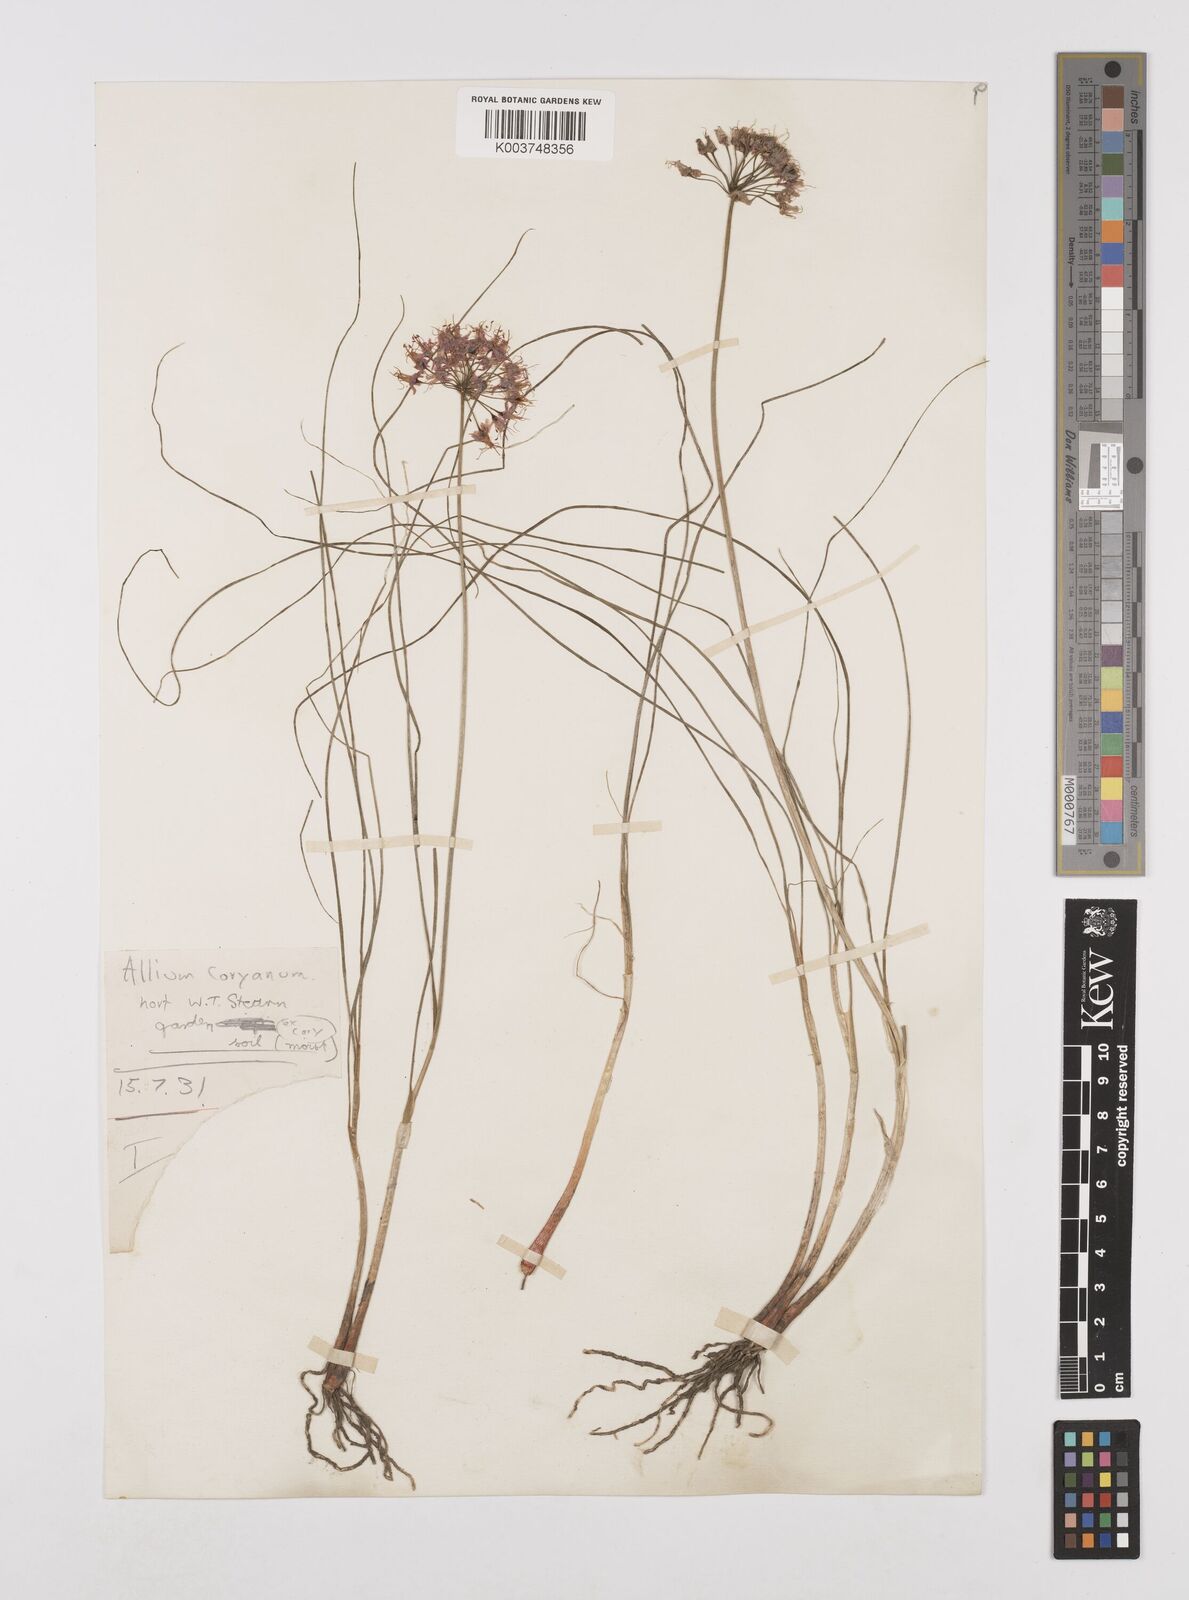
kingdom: Plantae
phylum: Tracheophyta
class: Liliopsida
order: Asparagales
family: Amaryllidaceae
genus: Allium
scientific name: Allium
